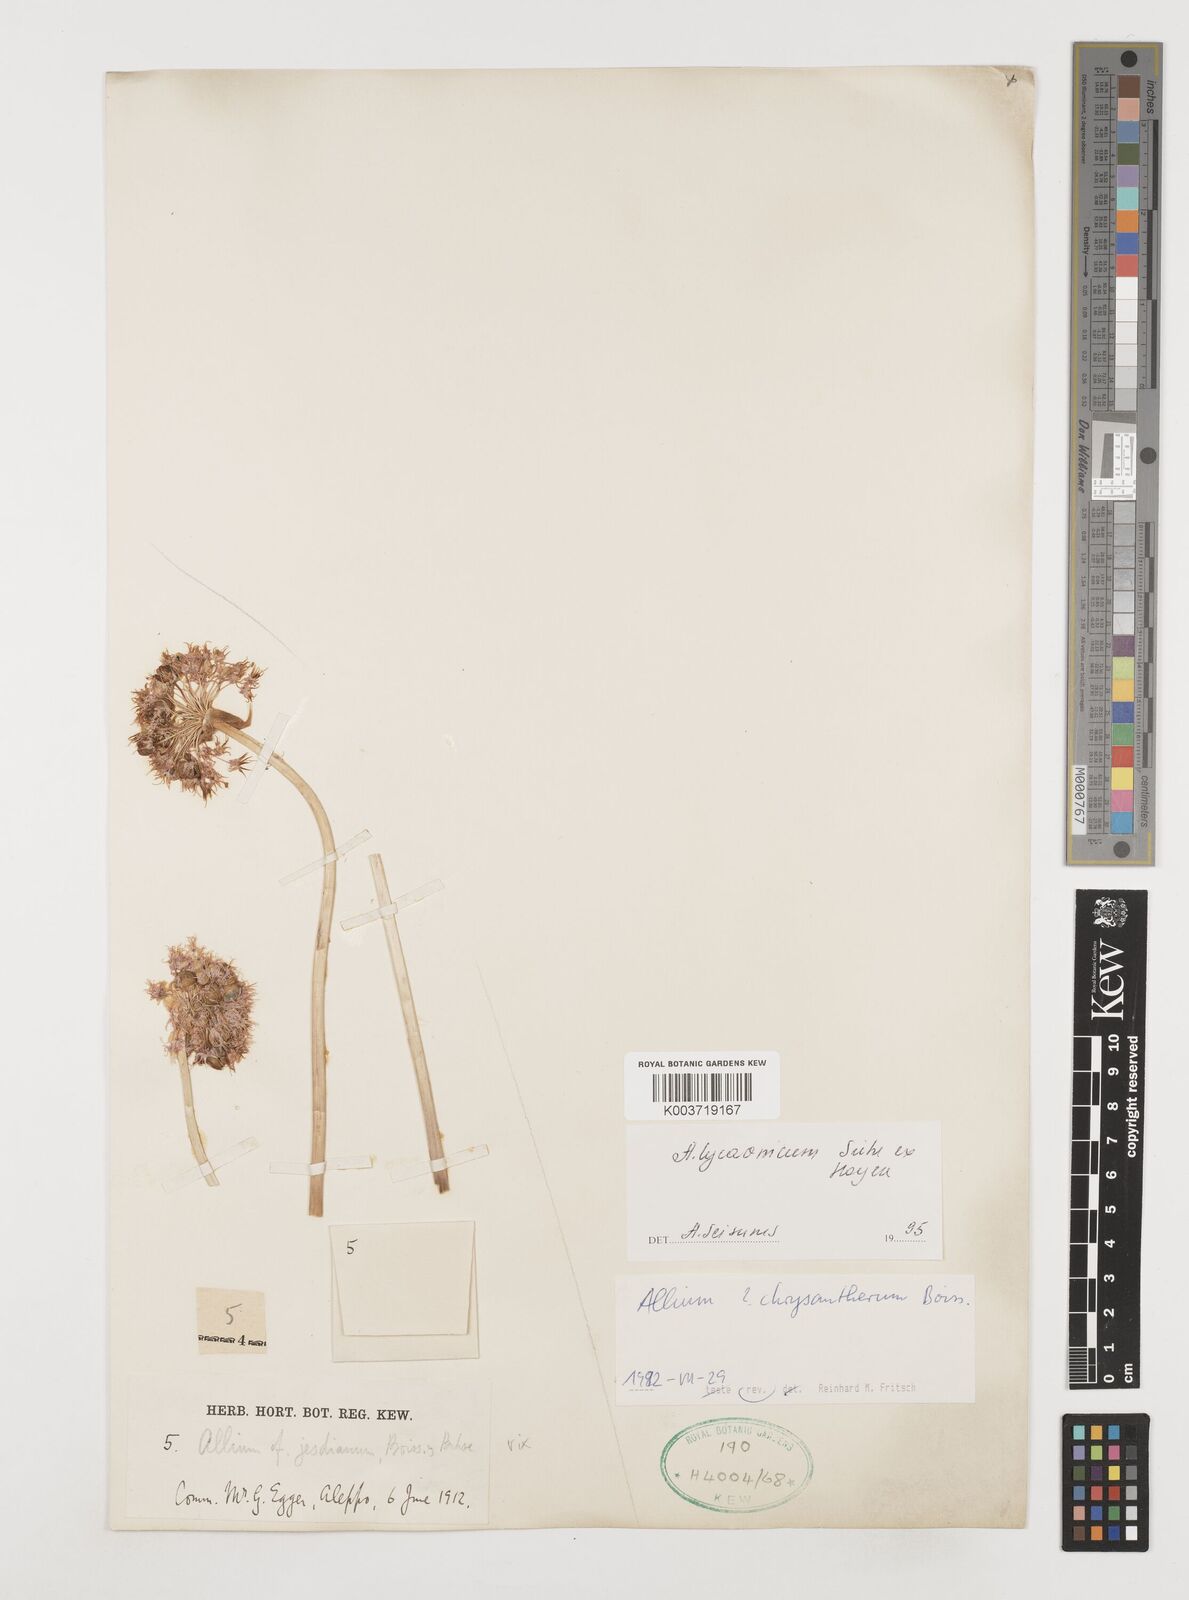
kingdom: Plantae
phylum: Tracheophyta
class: Liliopsida
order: Asparagales
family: Amaryllidaceae
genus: Allium
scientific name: Allium chrysantherum
